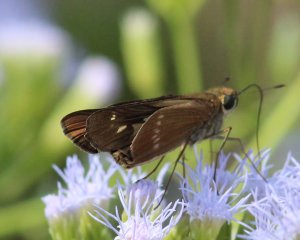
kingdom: Animalia
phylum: Arthropoda
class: Insecta
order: Lepidoptera
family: Hesperiidae
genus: Turesis
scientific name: Turesis lucas
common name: Purple-washed Skipper
